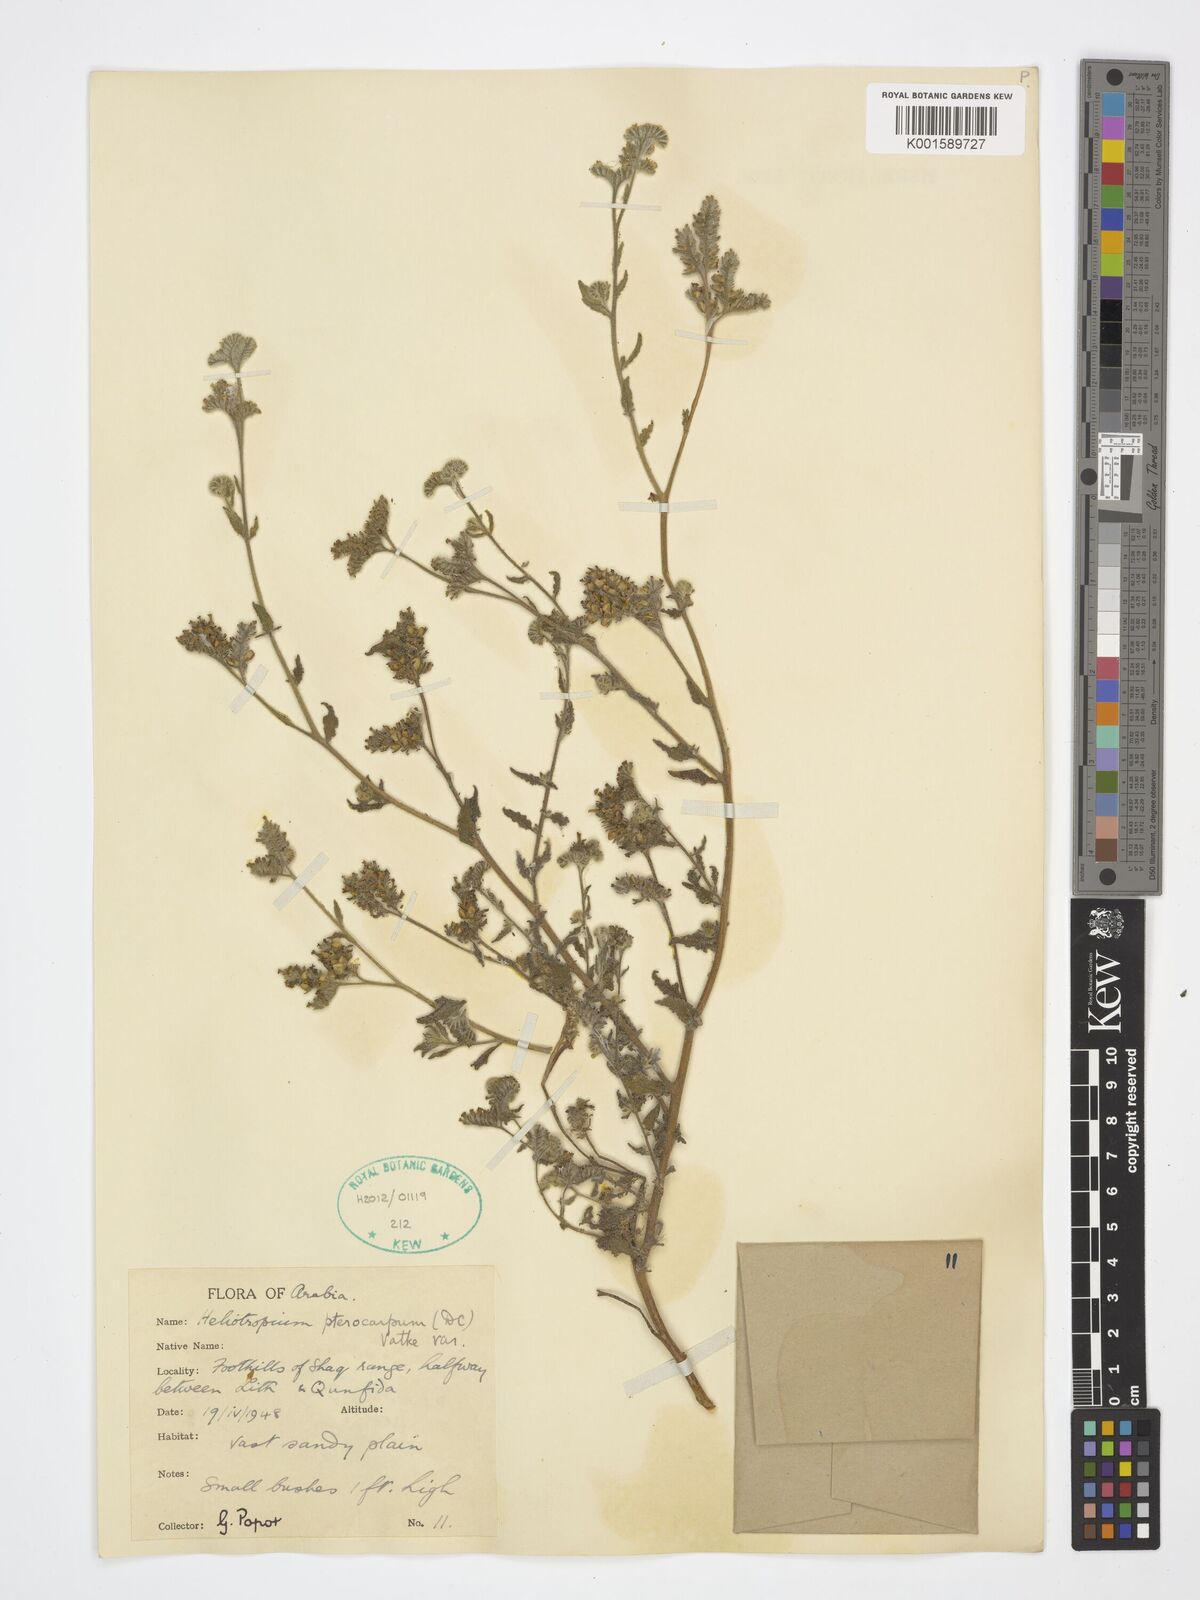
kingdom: Plantae
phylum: Tracheophyta
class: Magnoliopsida
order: Boraginales
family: Heliotropiaceae
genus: Heliotropium
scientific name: Heliotropium pterocarpum
